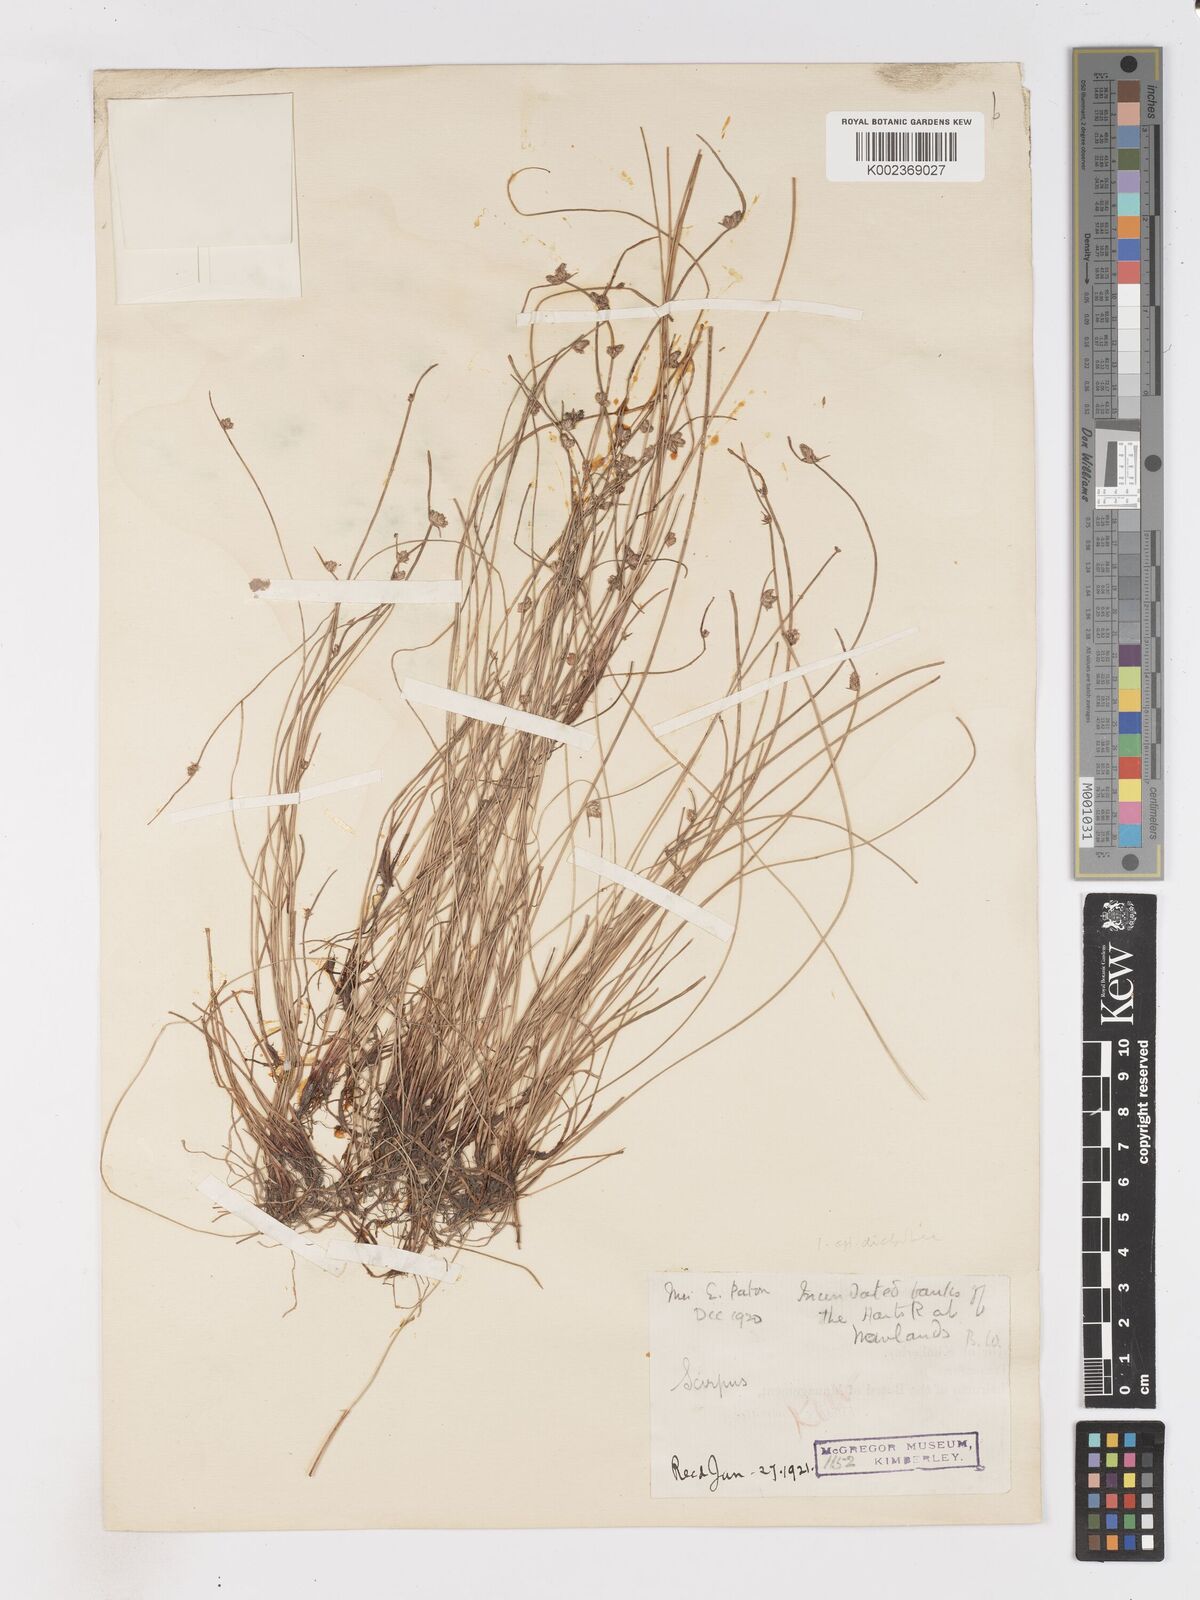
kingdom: Plantae
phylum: Tracheophyta
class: Liliopsida
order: Poales
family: Cyperaceae
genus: Isolepis
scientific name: Isolepis diabolica
